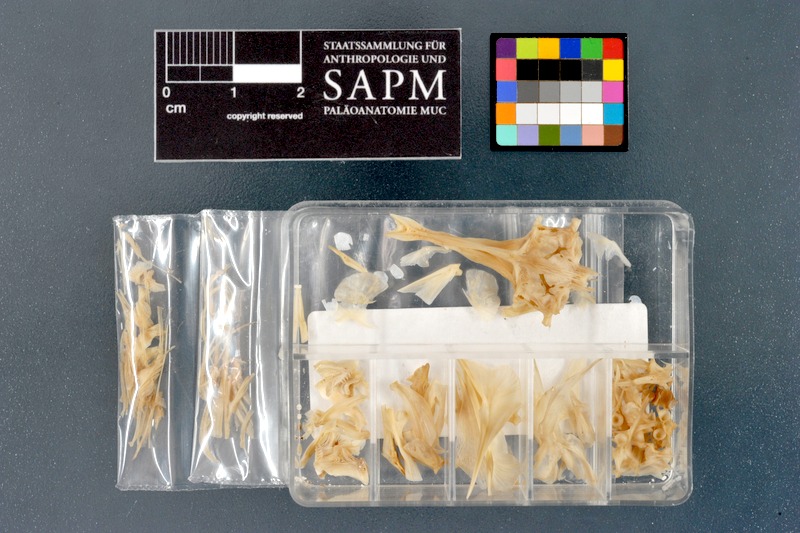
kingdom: Animalia
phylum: Chordata
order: Tetraodontiformes
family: Tetraodontidae
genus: Sphoeroides
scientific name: Sphoeroides spengleri
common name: Bandtail puffer
